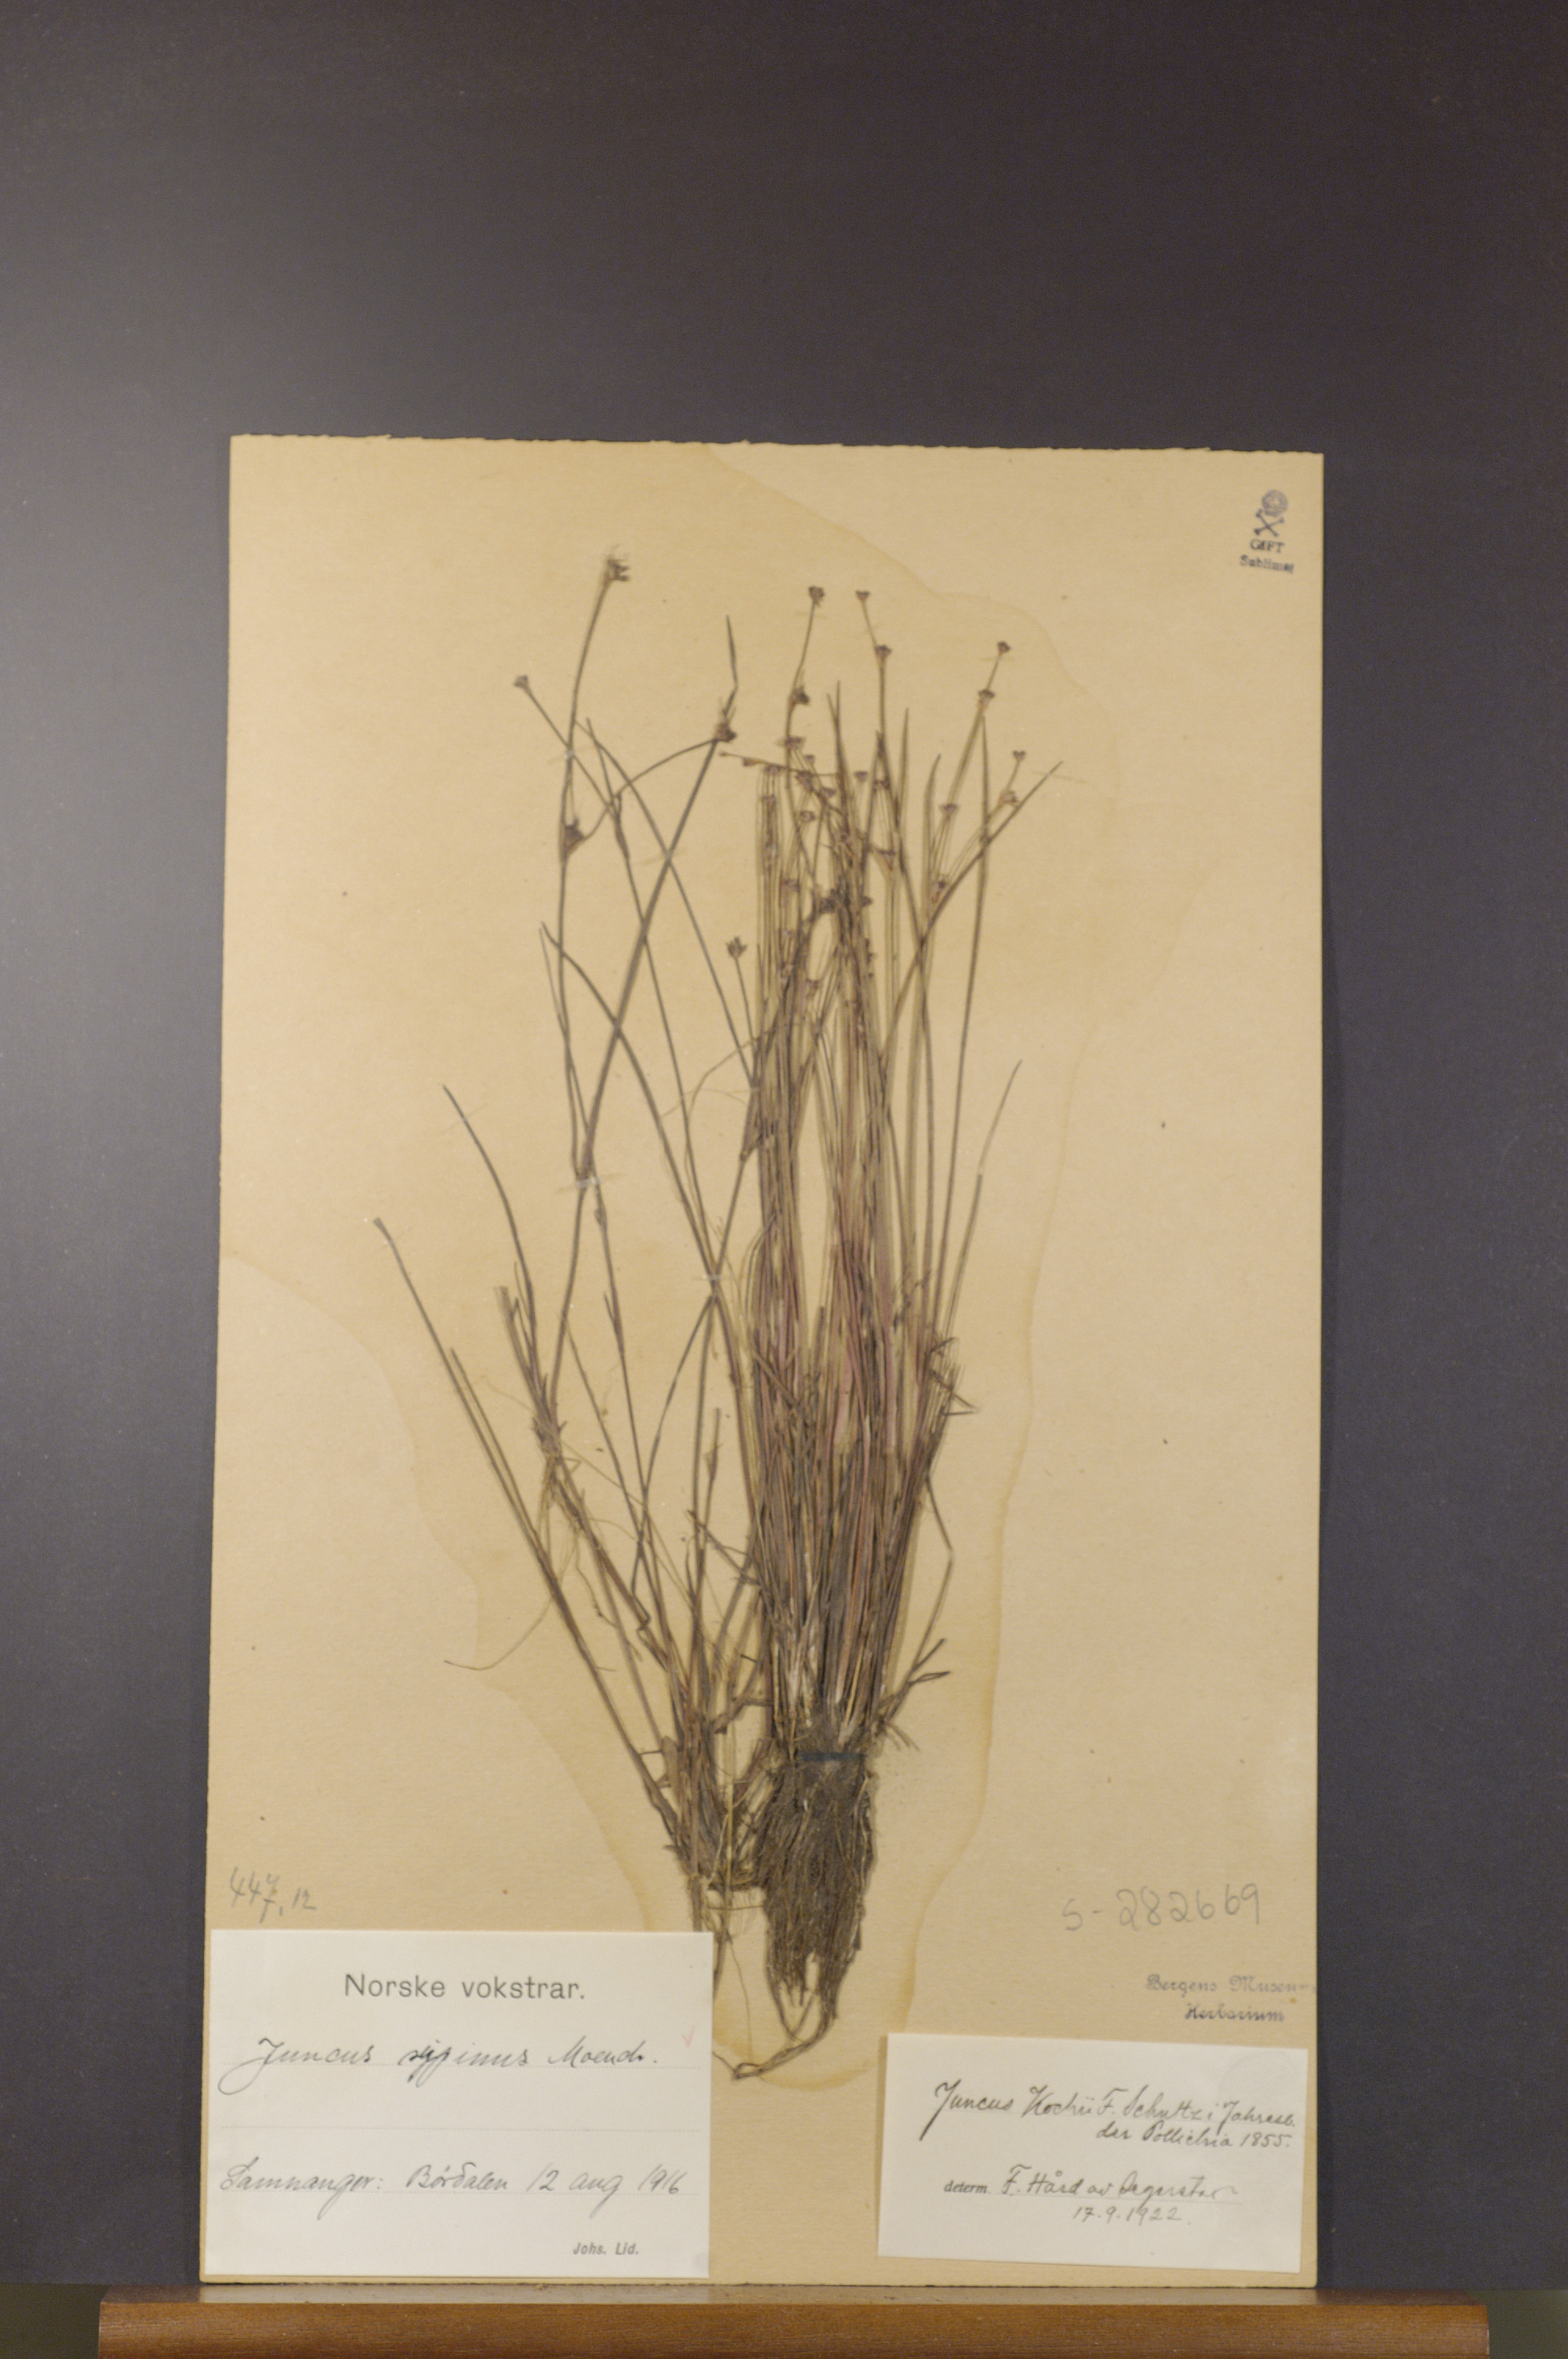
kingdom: Plantae
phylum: Tracheophyta
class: Liliopsida
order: Poales
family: Juncaceae
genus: Juncus
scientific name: Juncus bulbosus
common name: Bulbous rush
